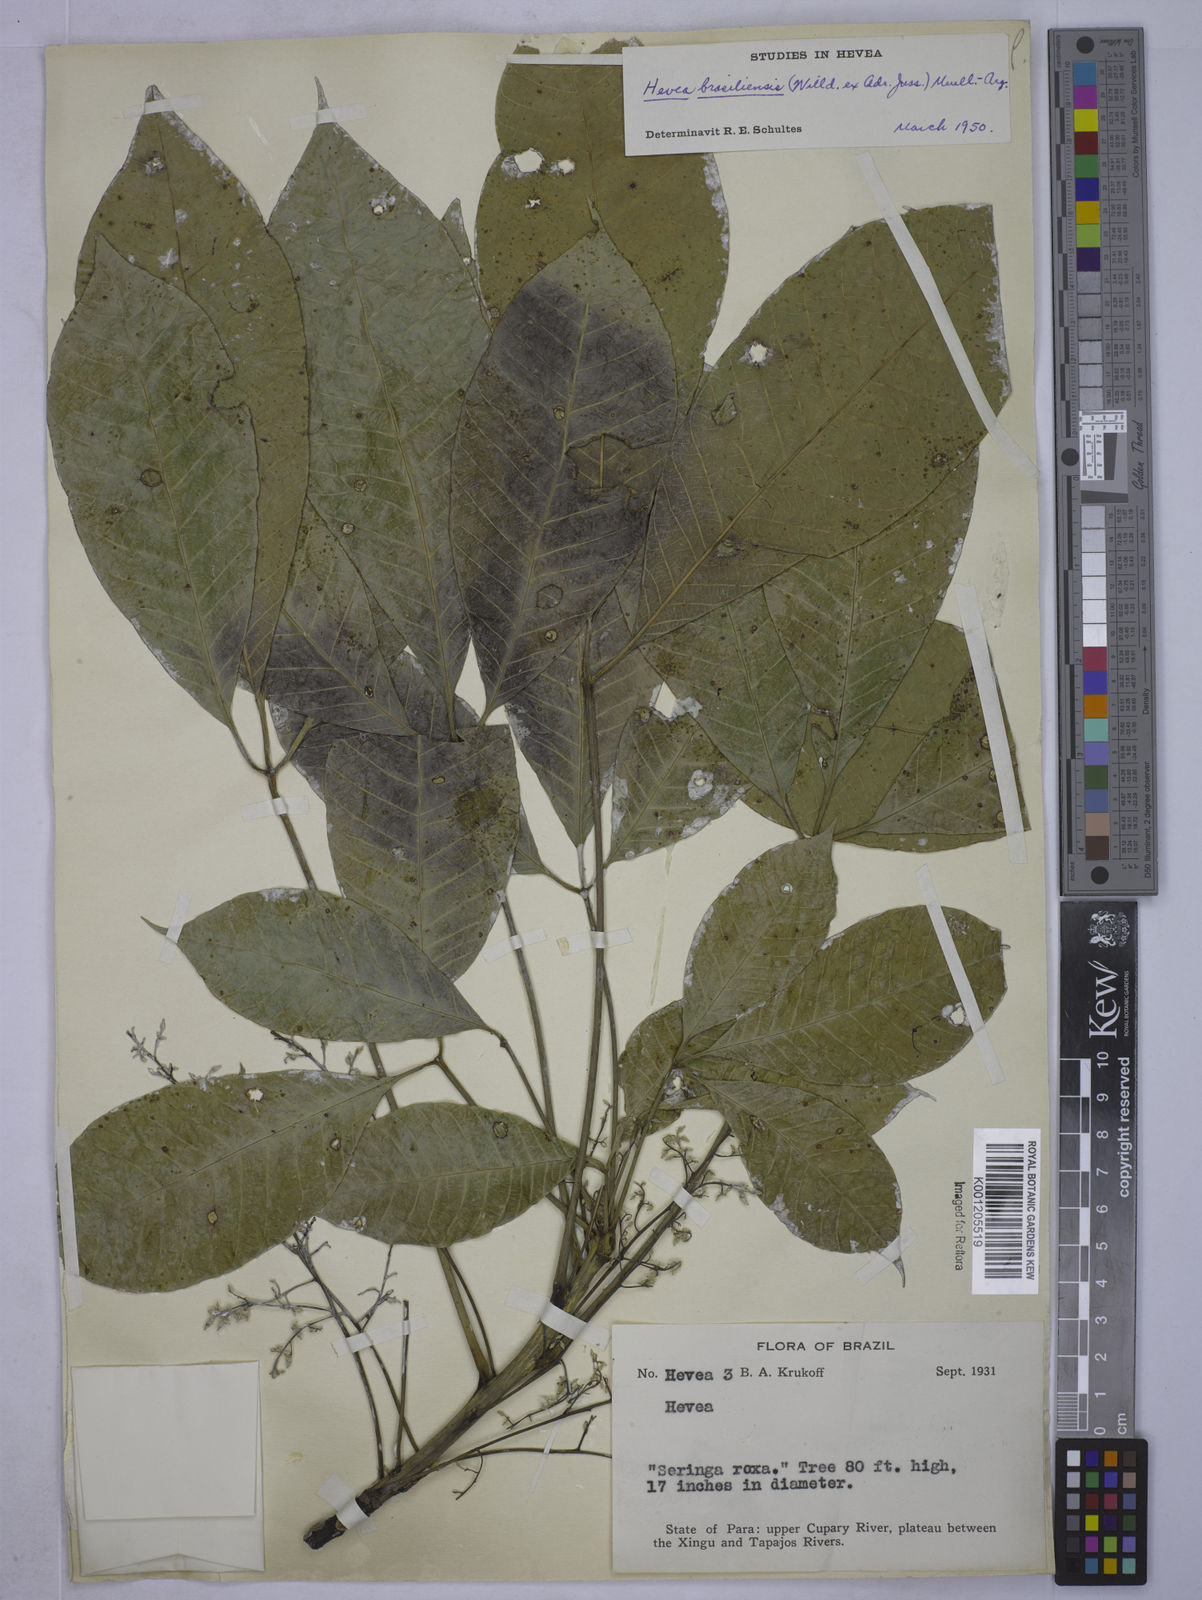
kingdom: Plantae
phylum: Tracheophyta
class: Magnoliopsida
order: Malpighiales
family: Euphorbiaceae
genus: Hevea
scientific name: Hevea
